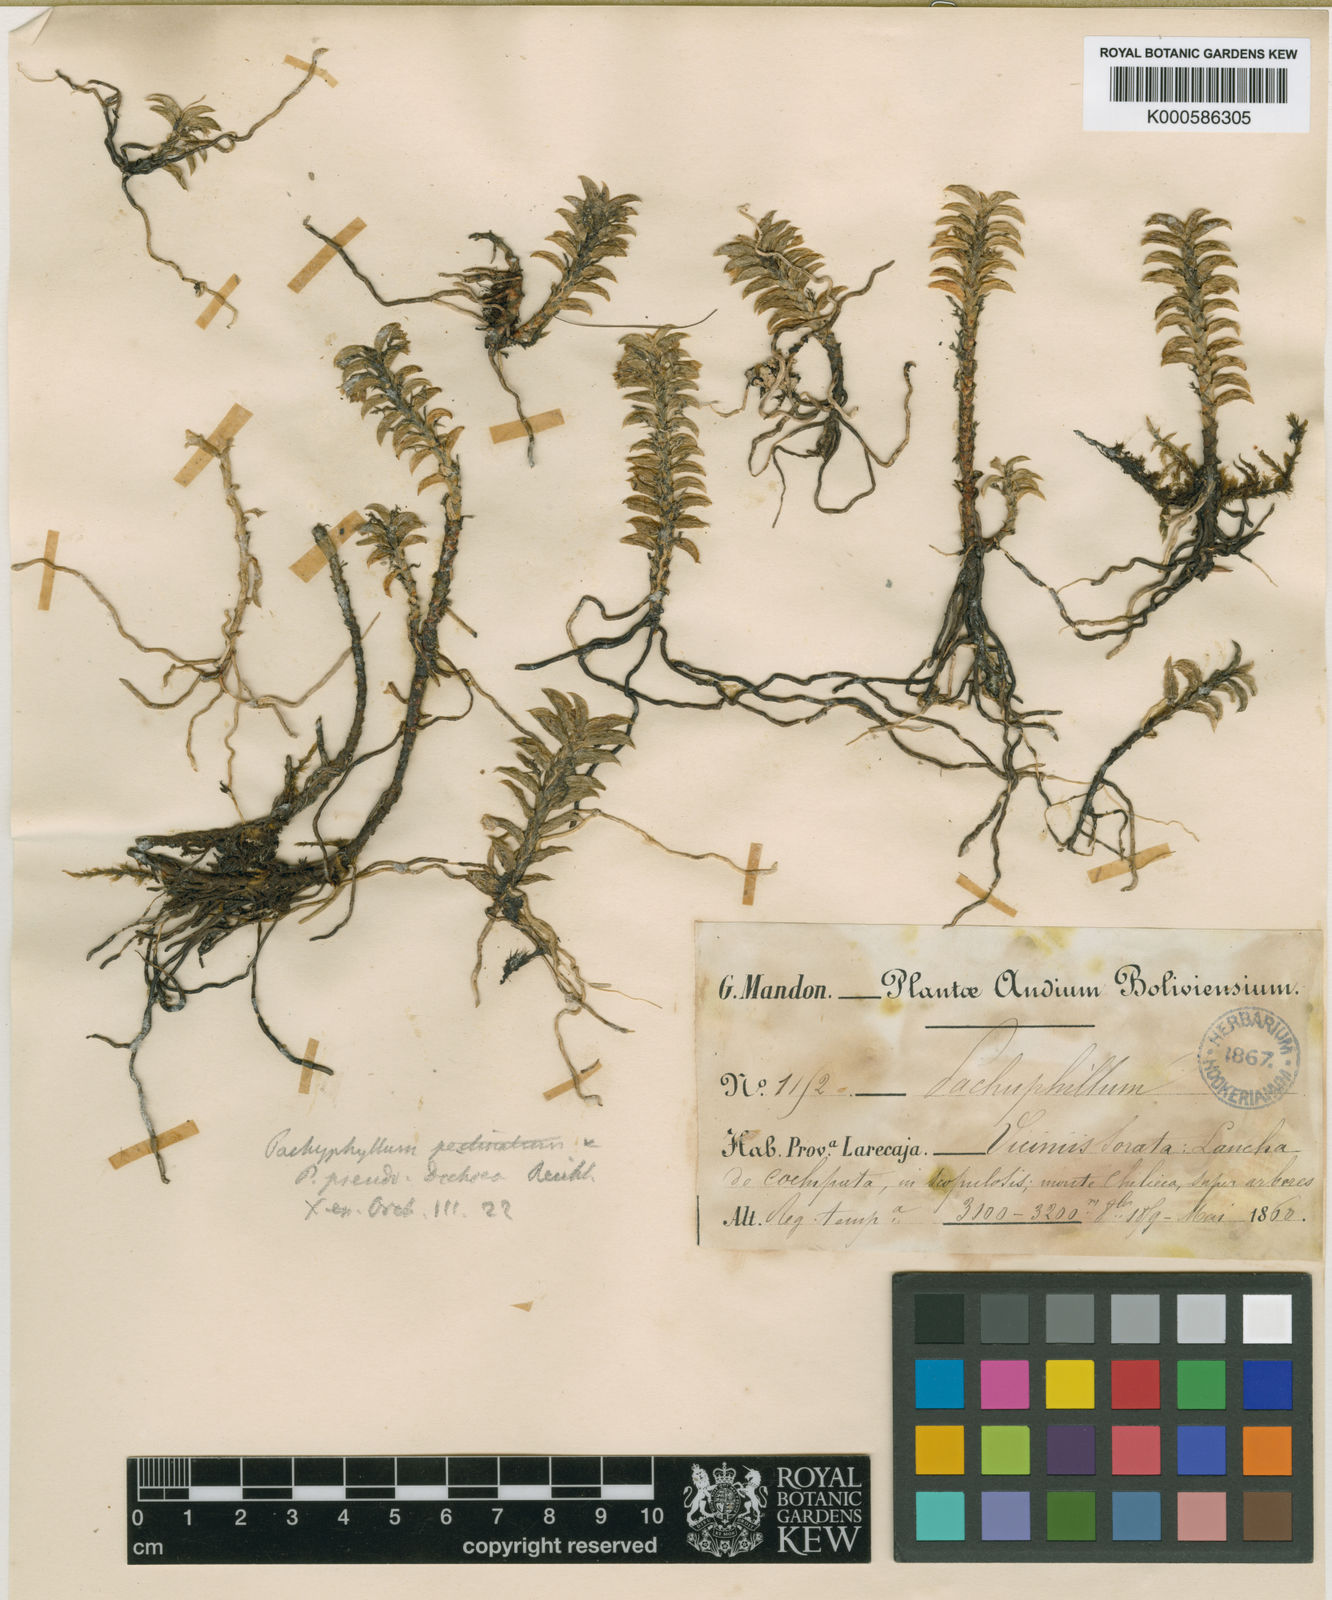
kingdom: Plantae
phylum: Tracheophyta
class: Liliopsida
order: Asparagales
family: Orchidaceae
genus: Fernandezia
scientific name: Fernandezia pseudodichaea
